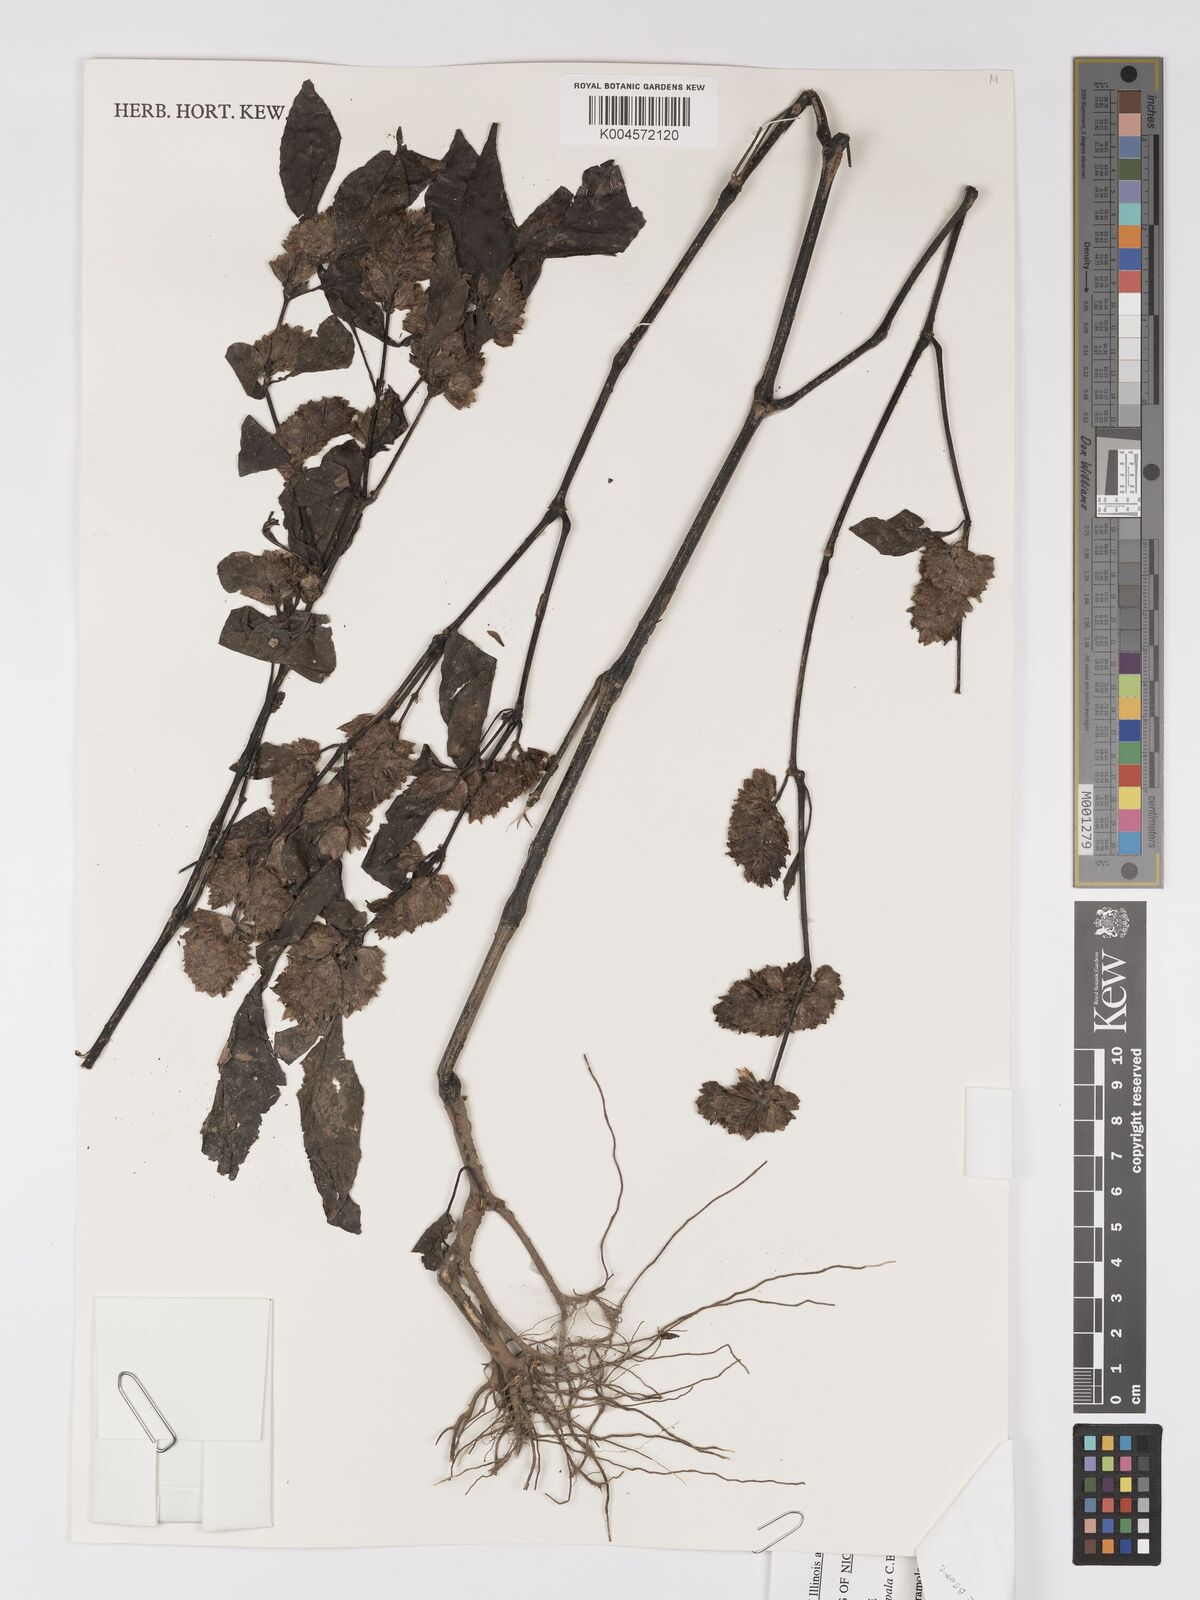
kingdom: Plantae
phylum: Tracheophyta
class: Magnoliopsida
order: Lamiales
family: Acanthaceae
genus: Phaulopsis
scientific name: Phaulopsis ciliata
